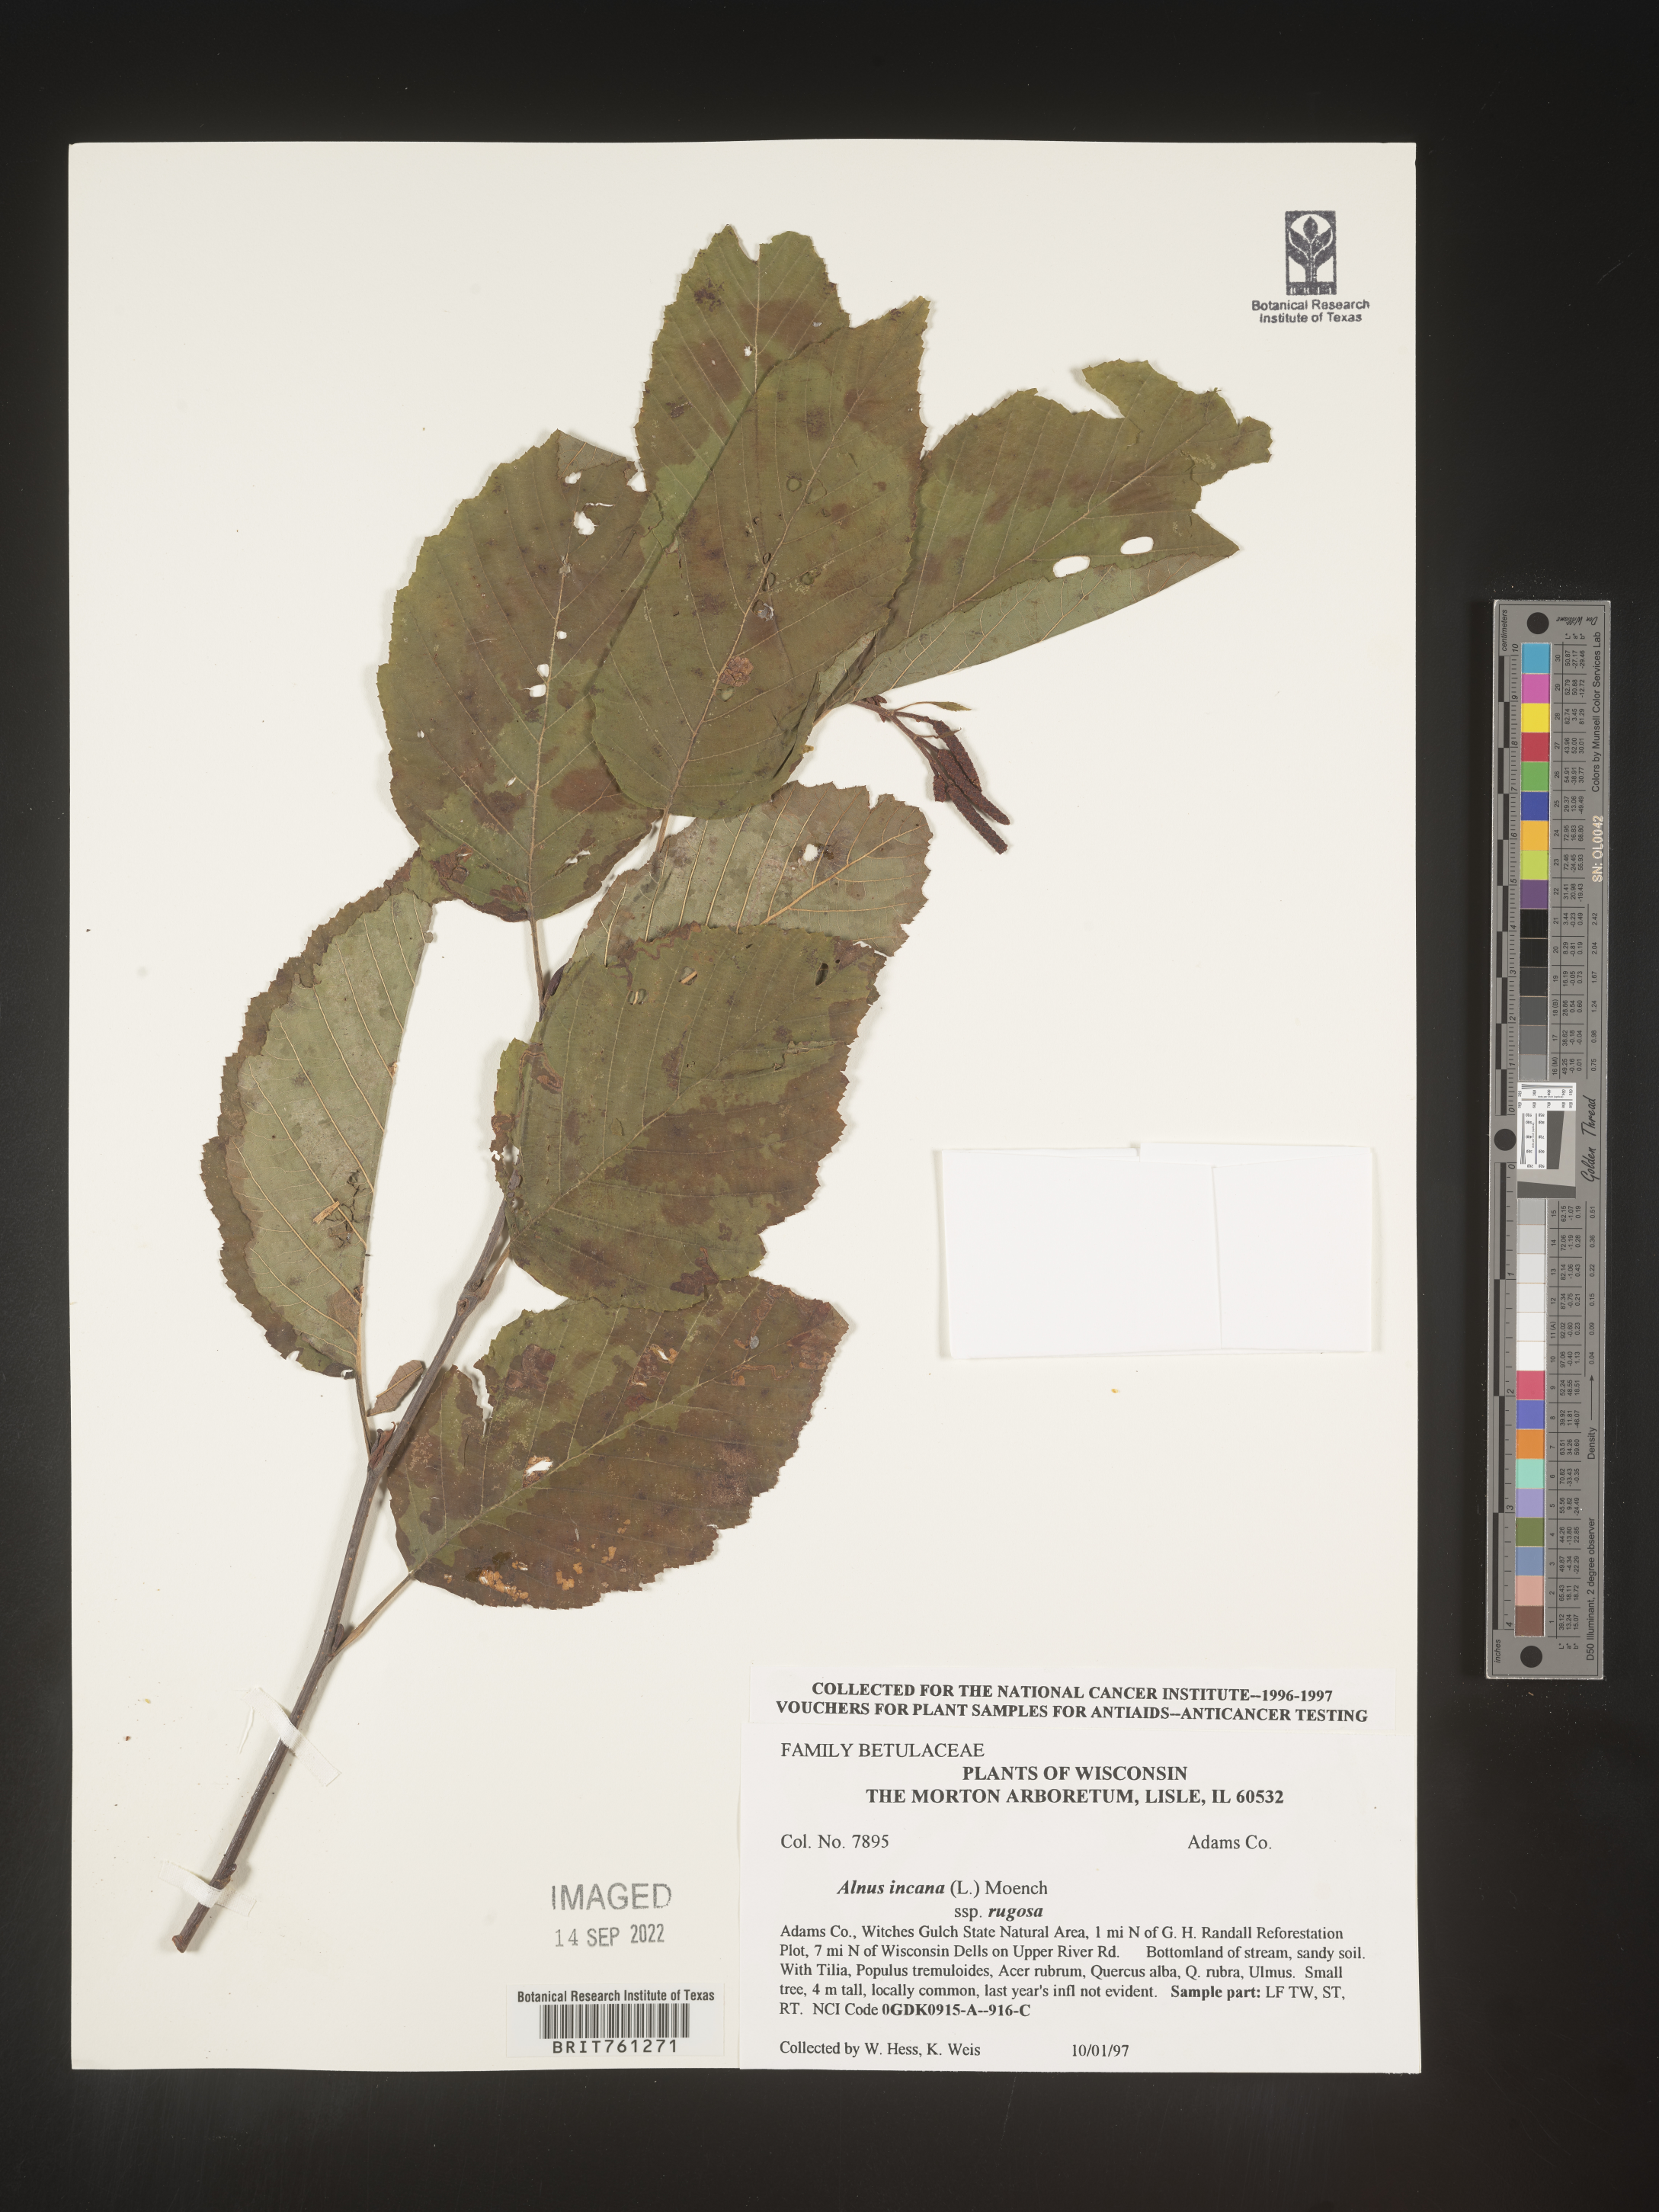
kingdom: Plantae
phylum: Tracheophyta
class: Magnoliopsida
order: Fagales
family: Betulaceae
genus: Alnus
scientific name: Alnus incana
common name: Grey alder
